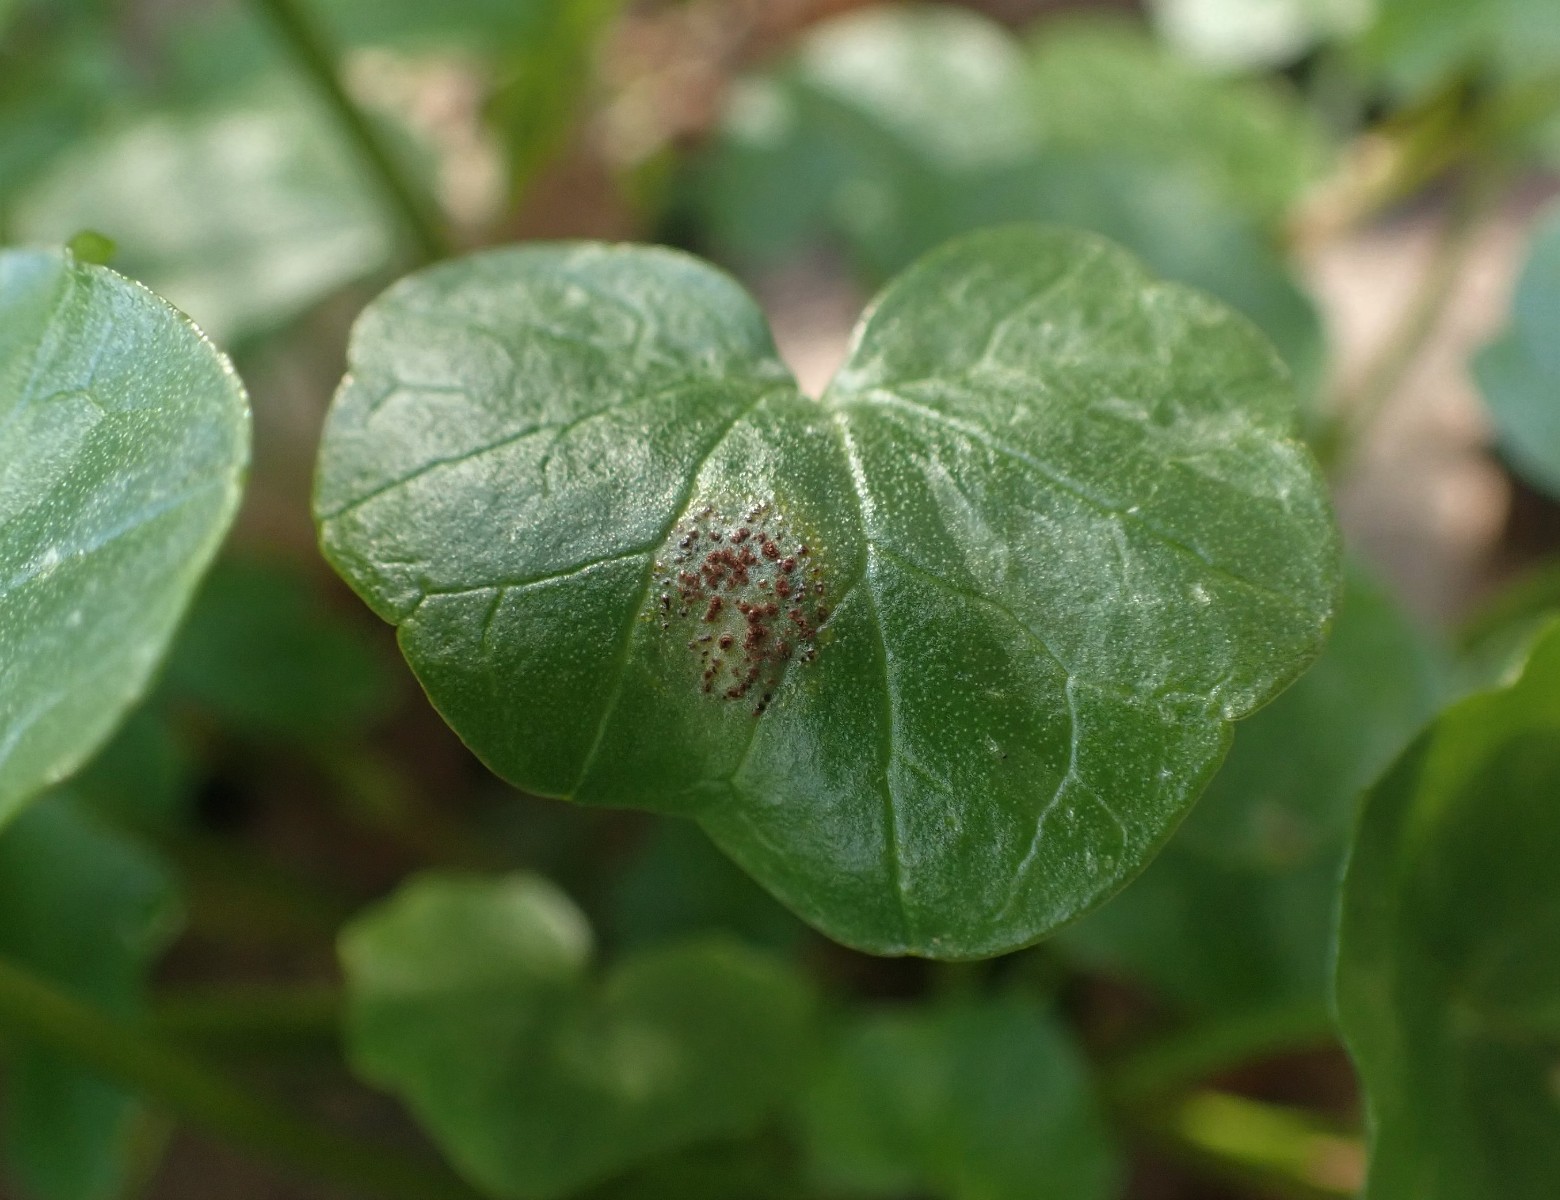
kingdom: Fungi
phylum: Basidiomycota
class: Pucciniomycetes
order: Pucciniales
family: Pucciniaceae
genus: Uromyces
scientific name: Uromyces ficariae
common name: vorterod-encellerust
